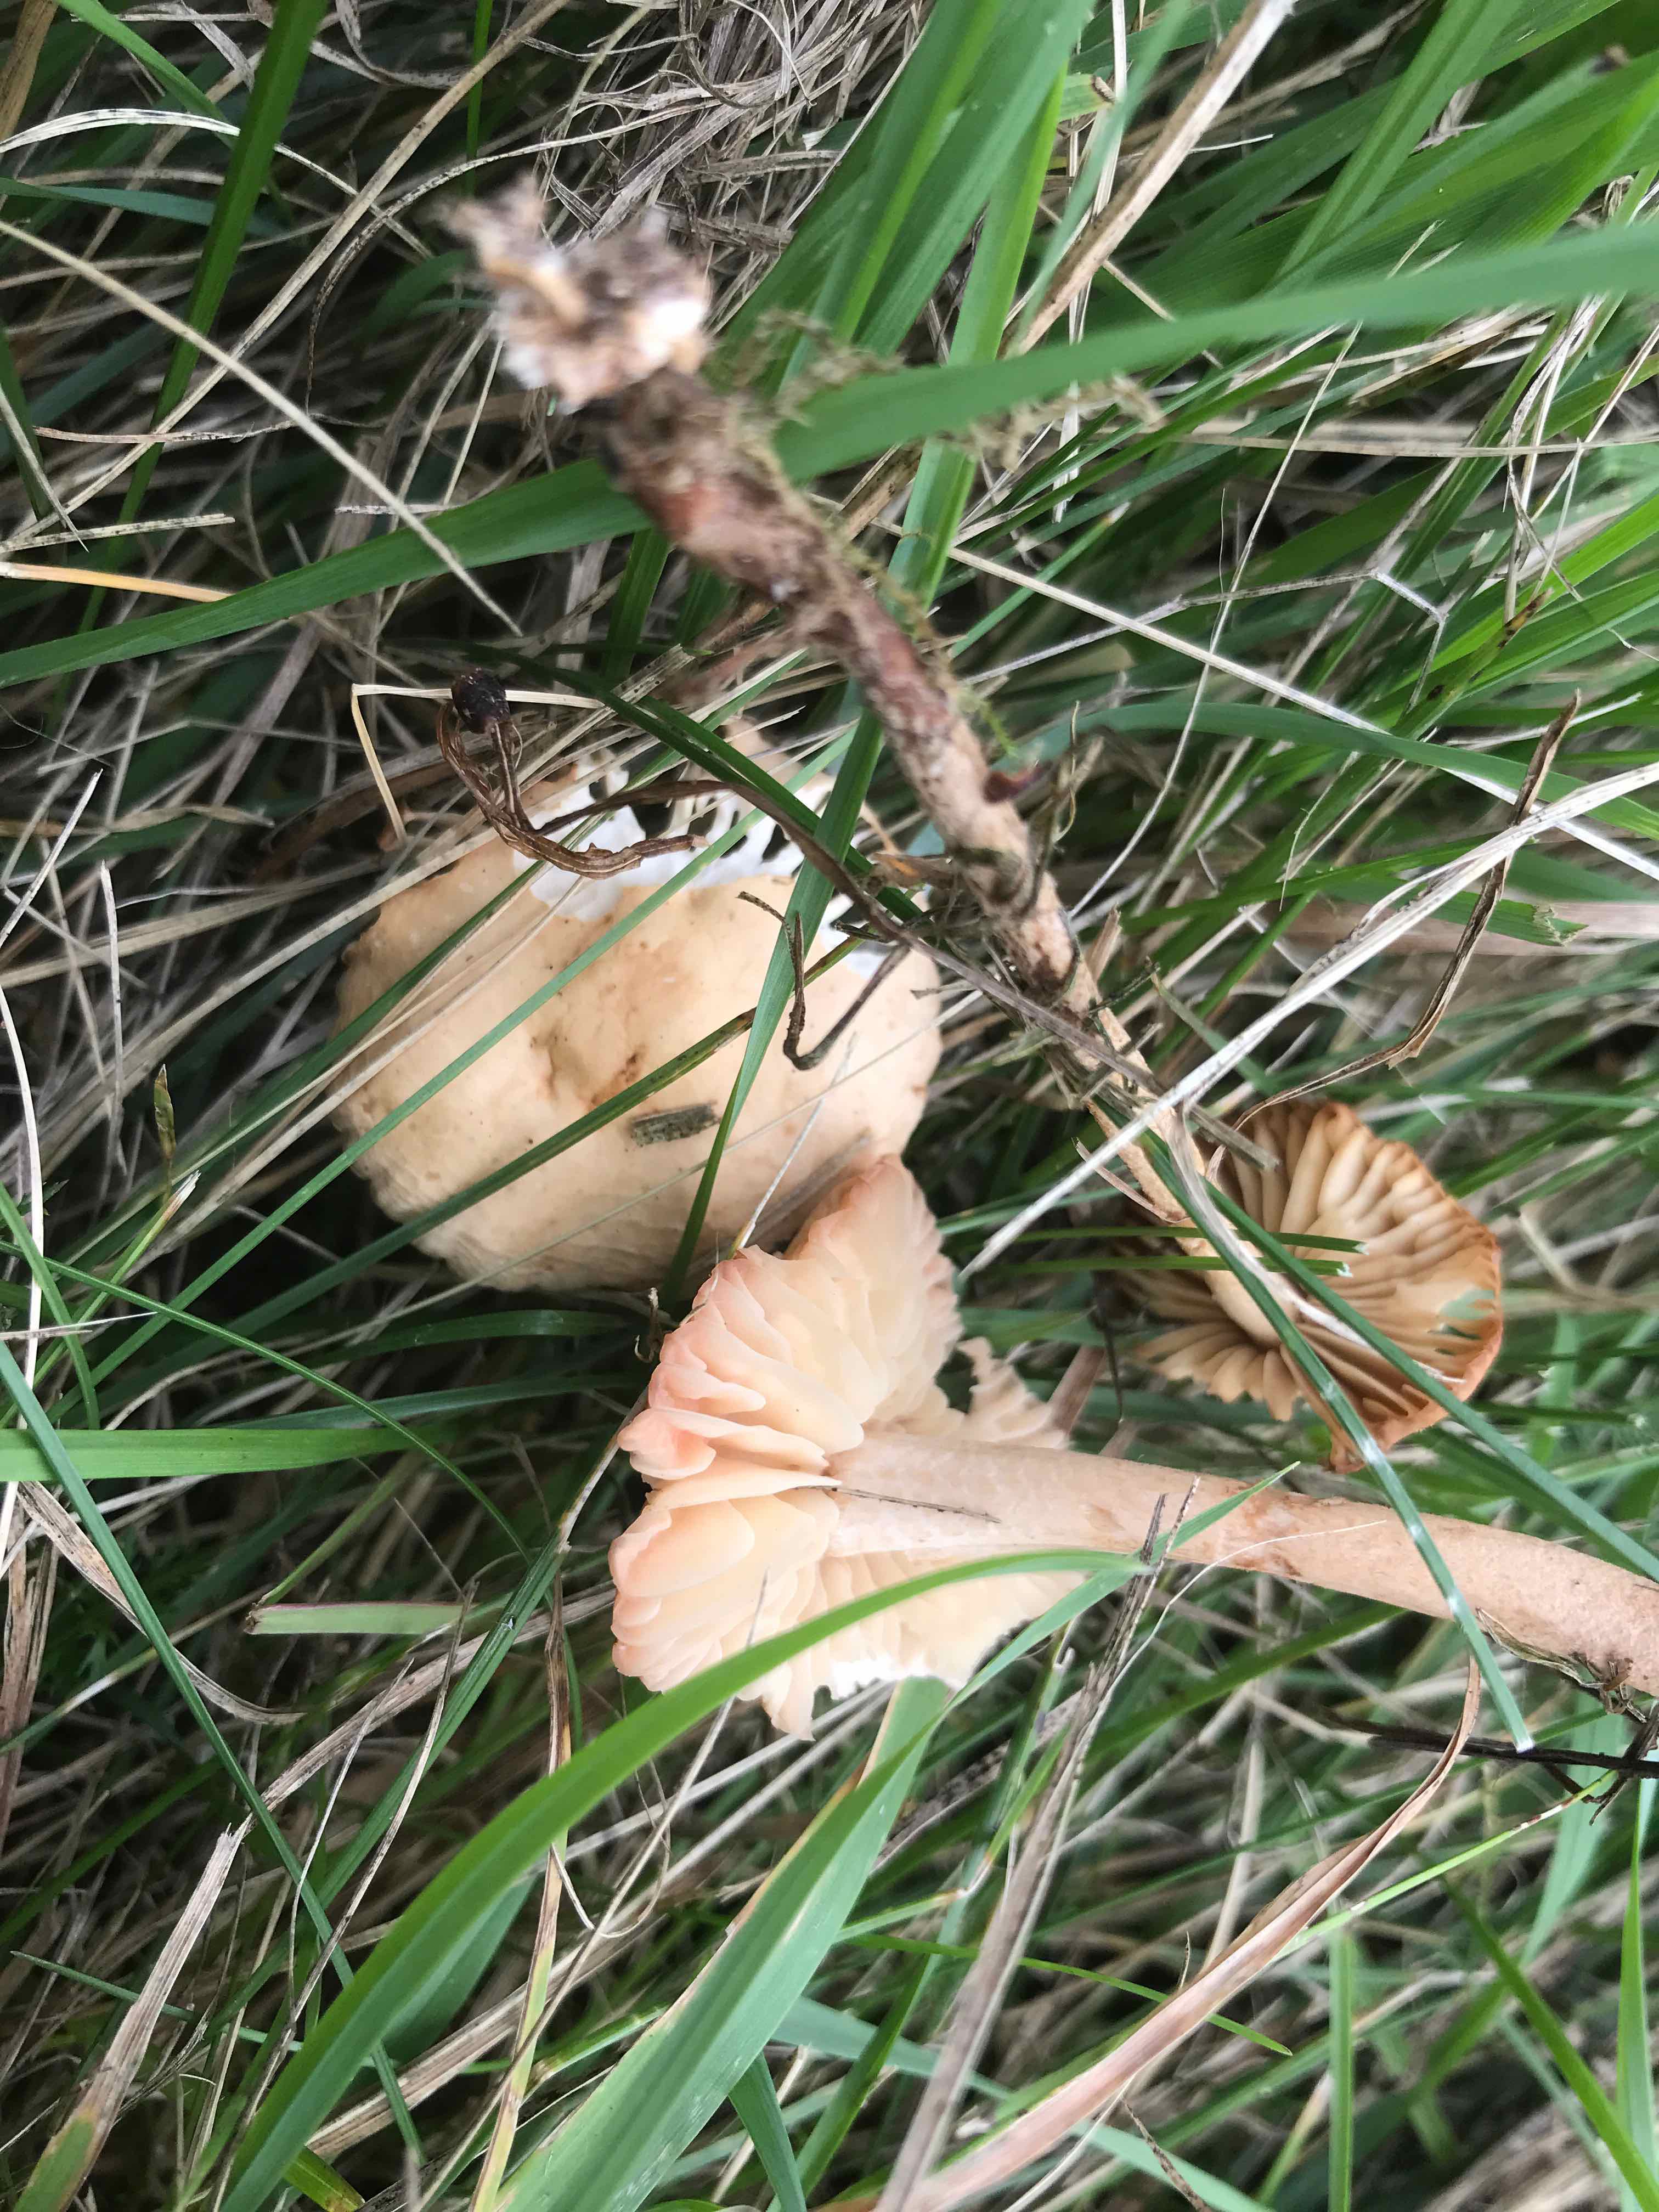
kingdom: Fungi
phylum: Basidiomycota
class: Agaricomycetes
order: Agaricales
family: Marasmiaceae
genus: Marasmius
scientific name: Marasmius oreades
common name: elledans-bruskhat
